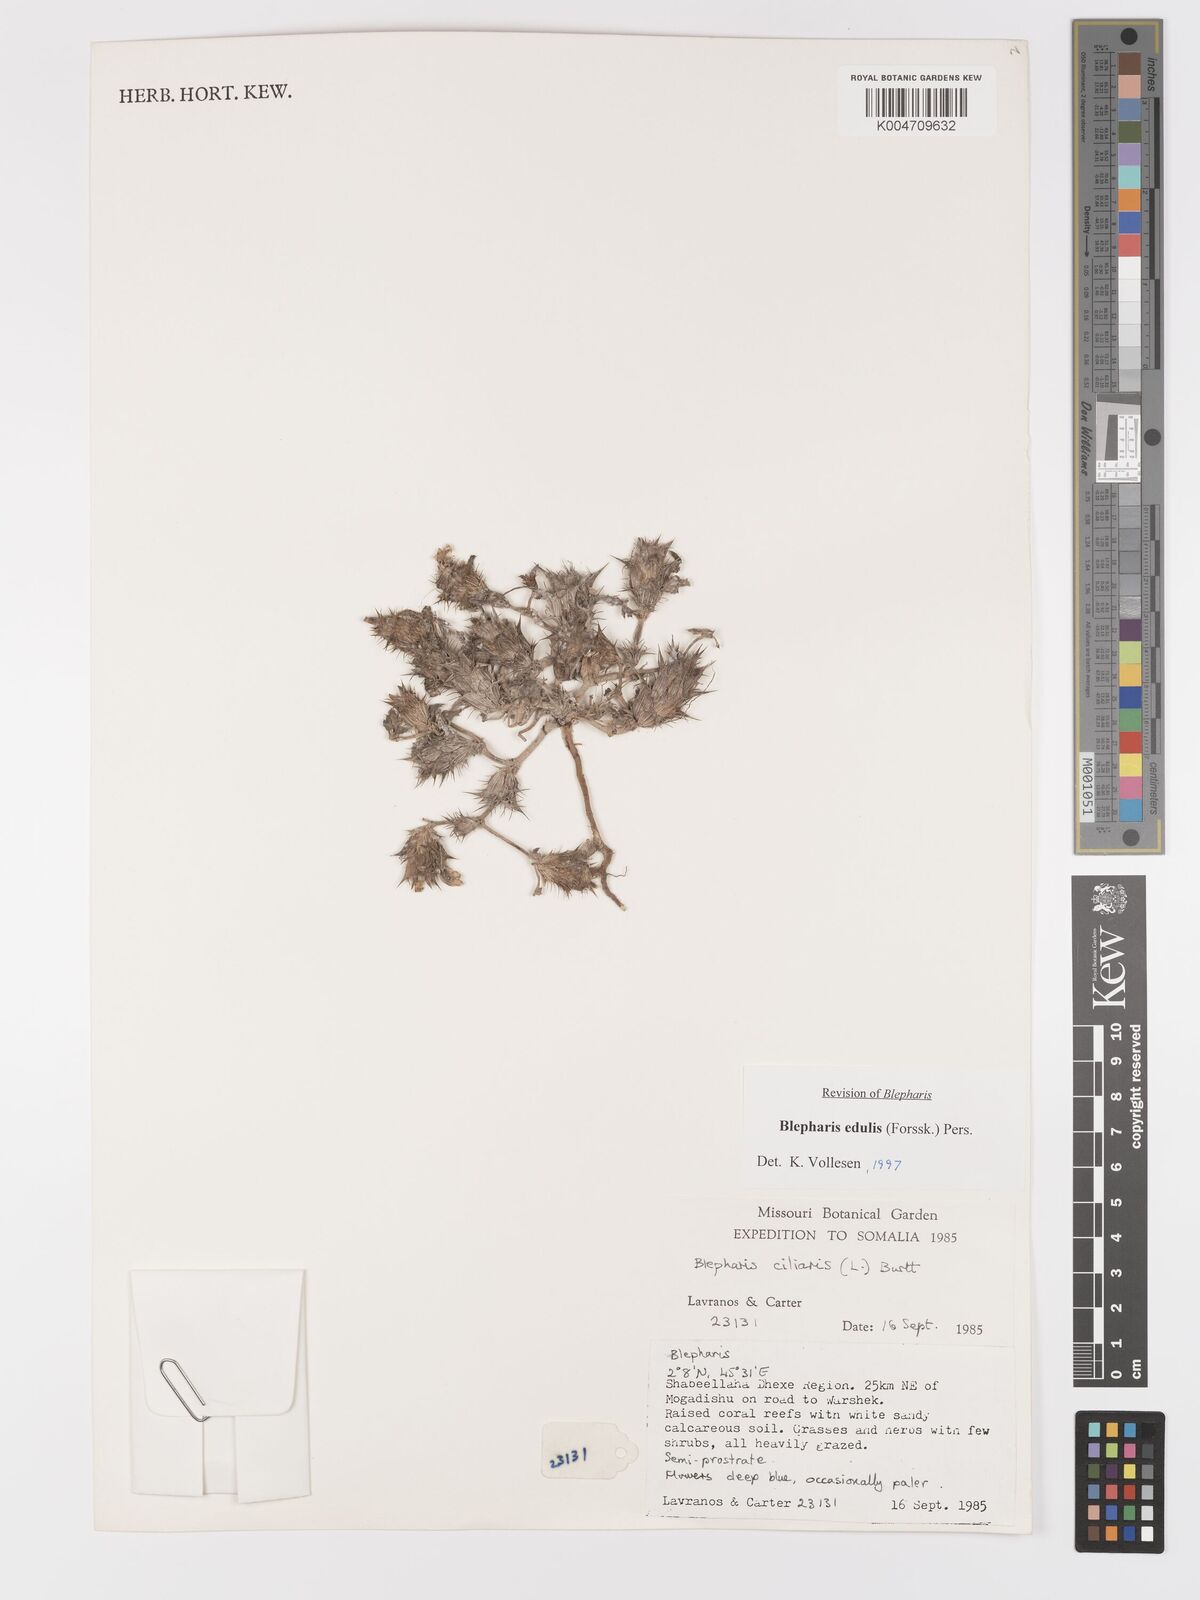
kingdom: Plantae
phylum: Tracheophyta
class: Magnoliopsida
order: Lamiales
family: Acanthaceae
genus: Blepharis
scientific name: Blepharis edulis
